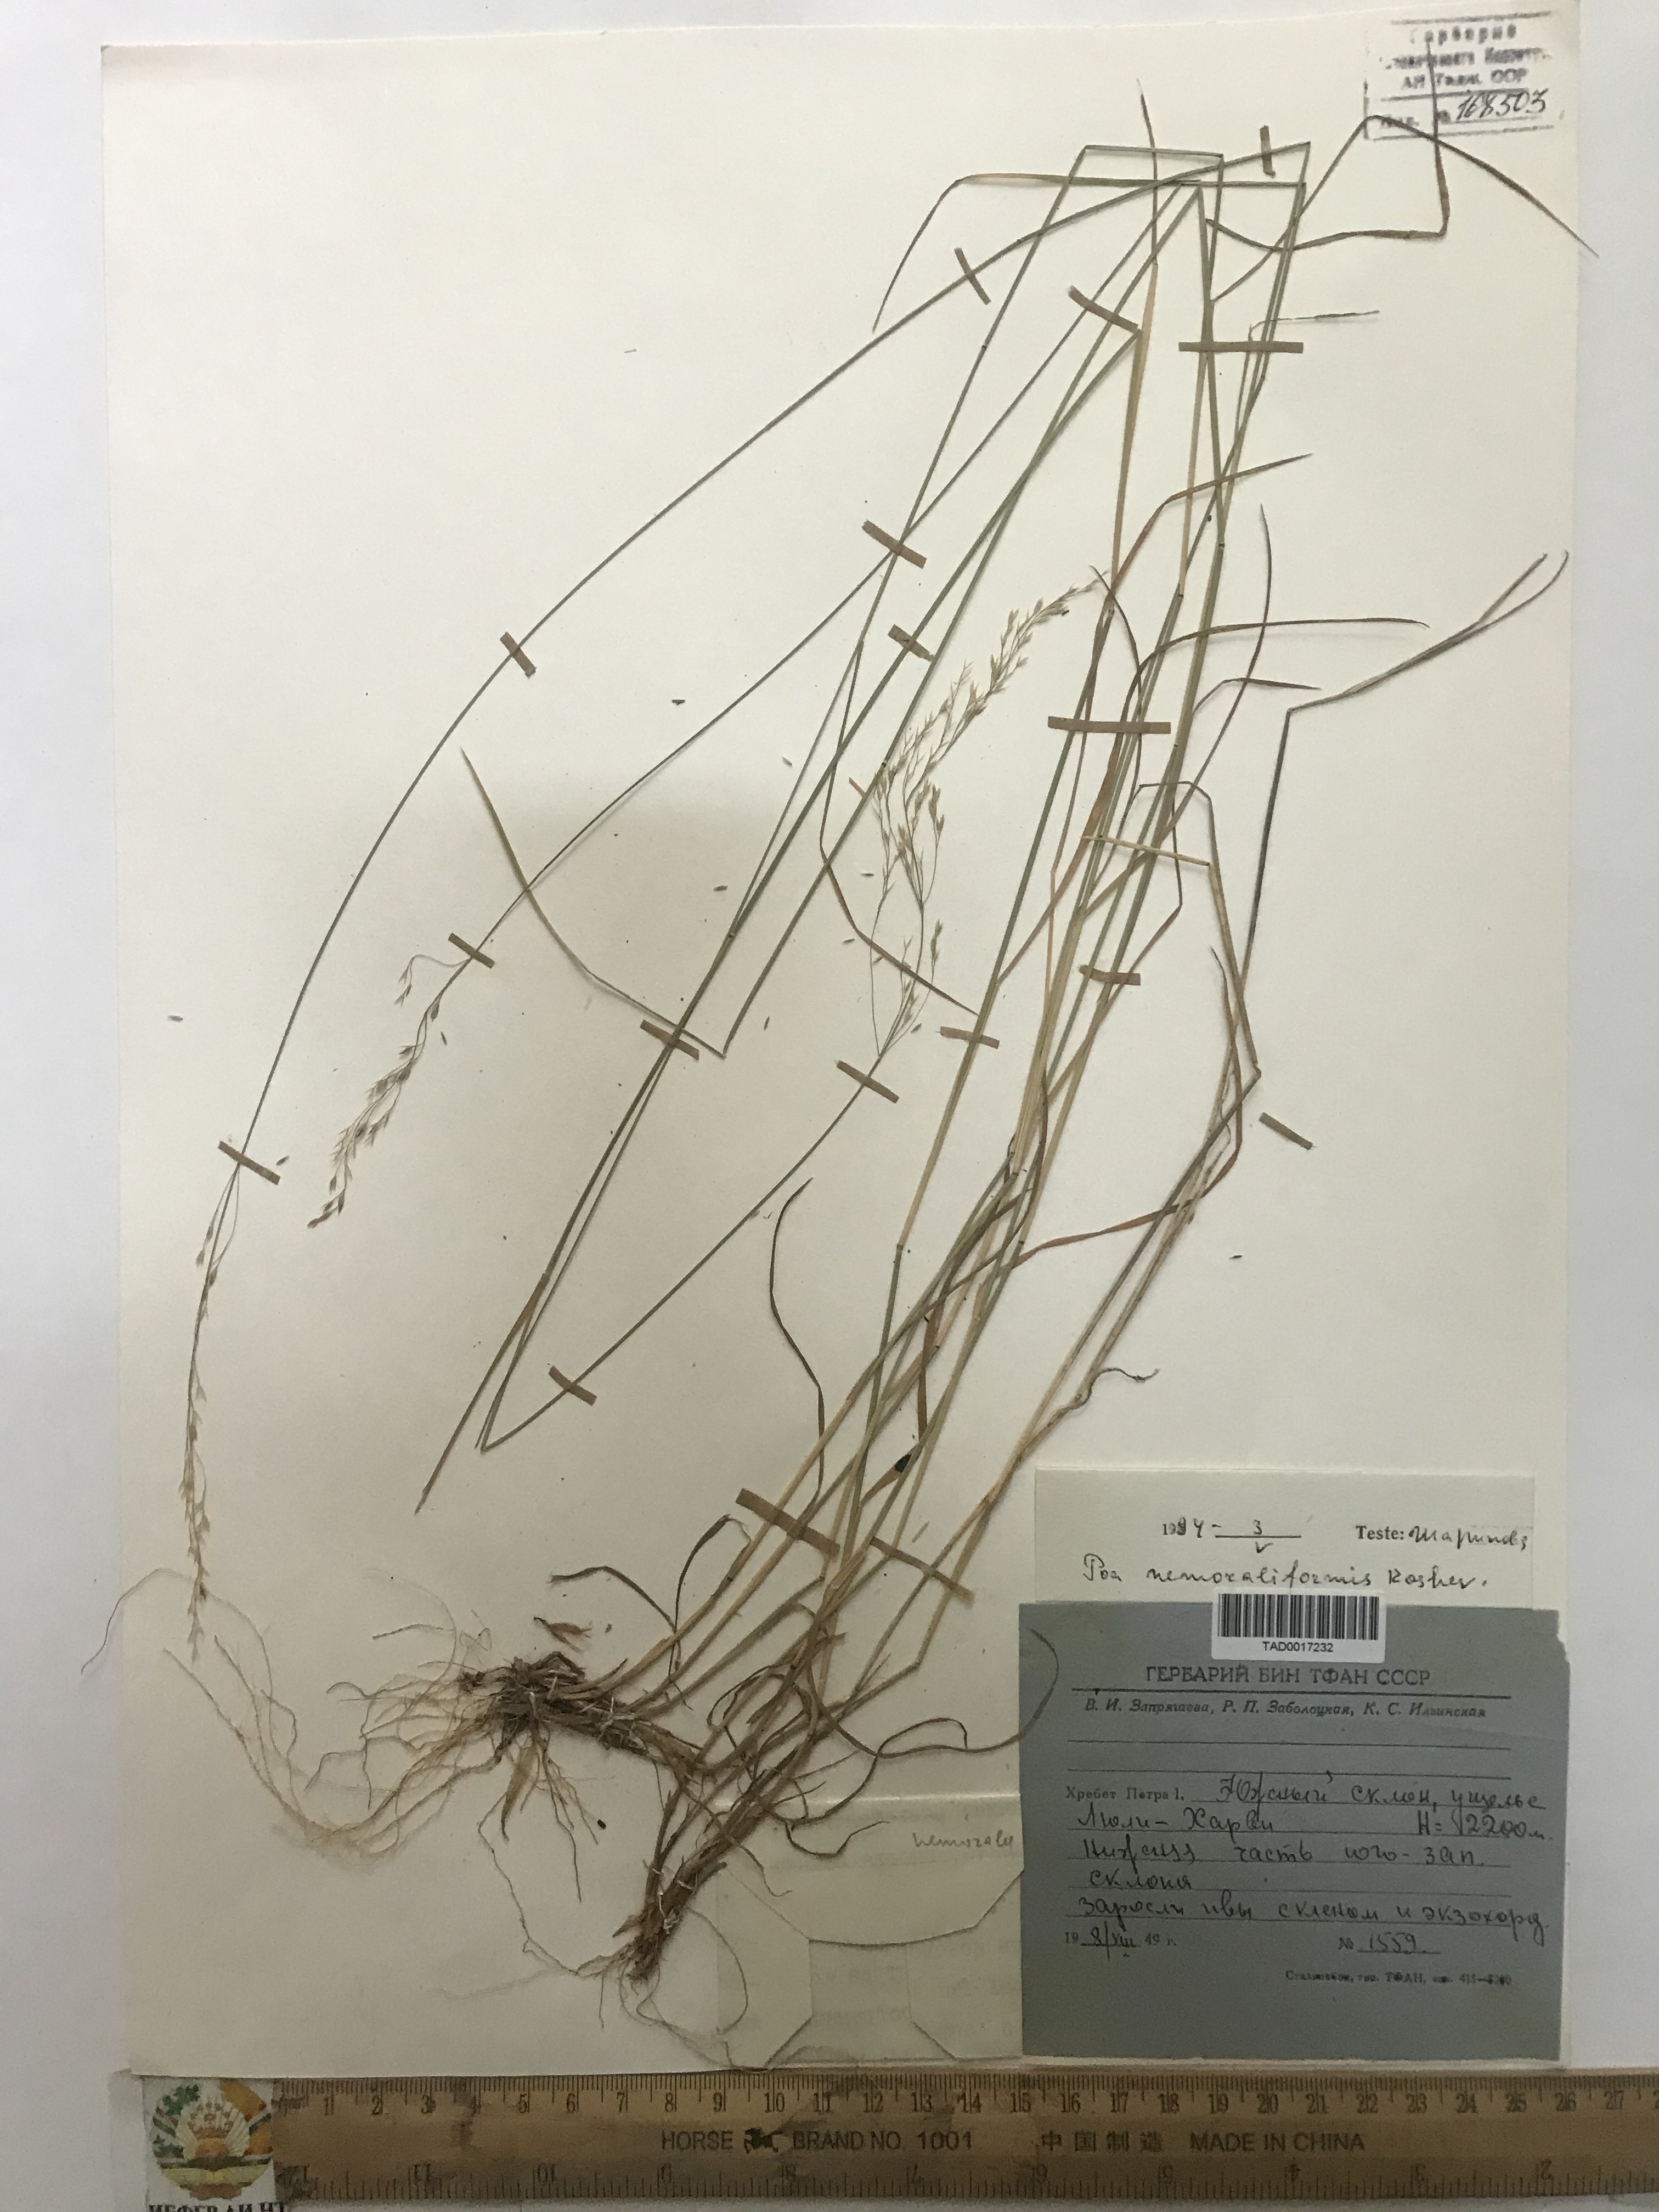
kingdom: Plantae
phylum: Tracheophyta
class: Liliopsida
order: Poales
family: Poaceae
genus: Poa
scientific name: Poa urssulensis
